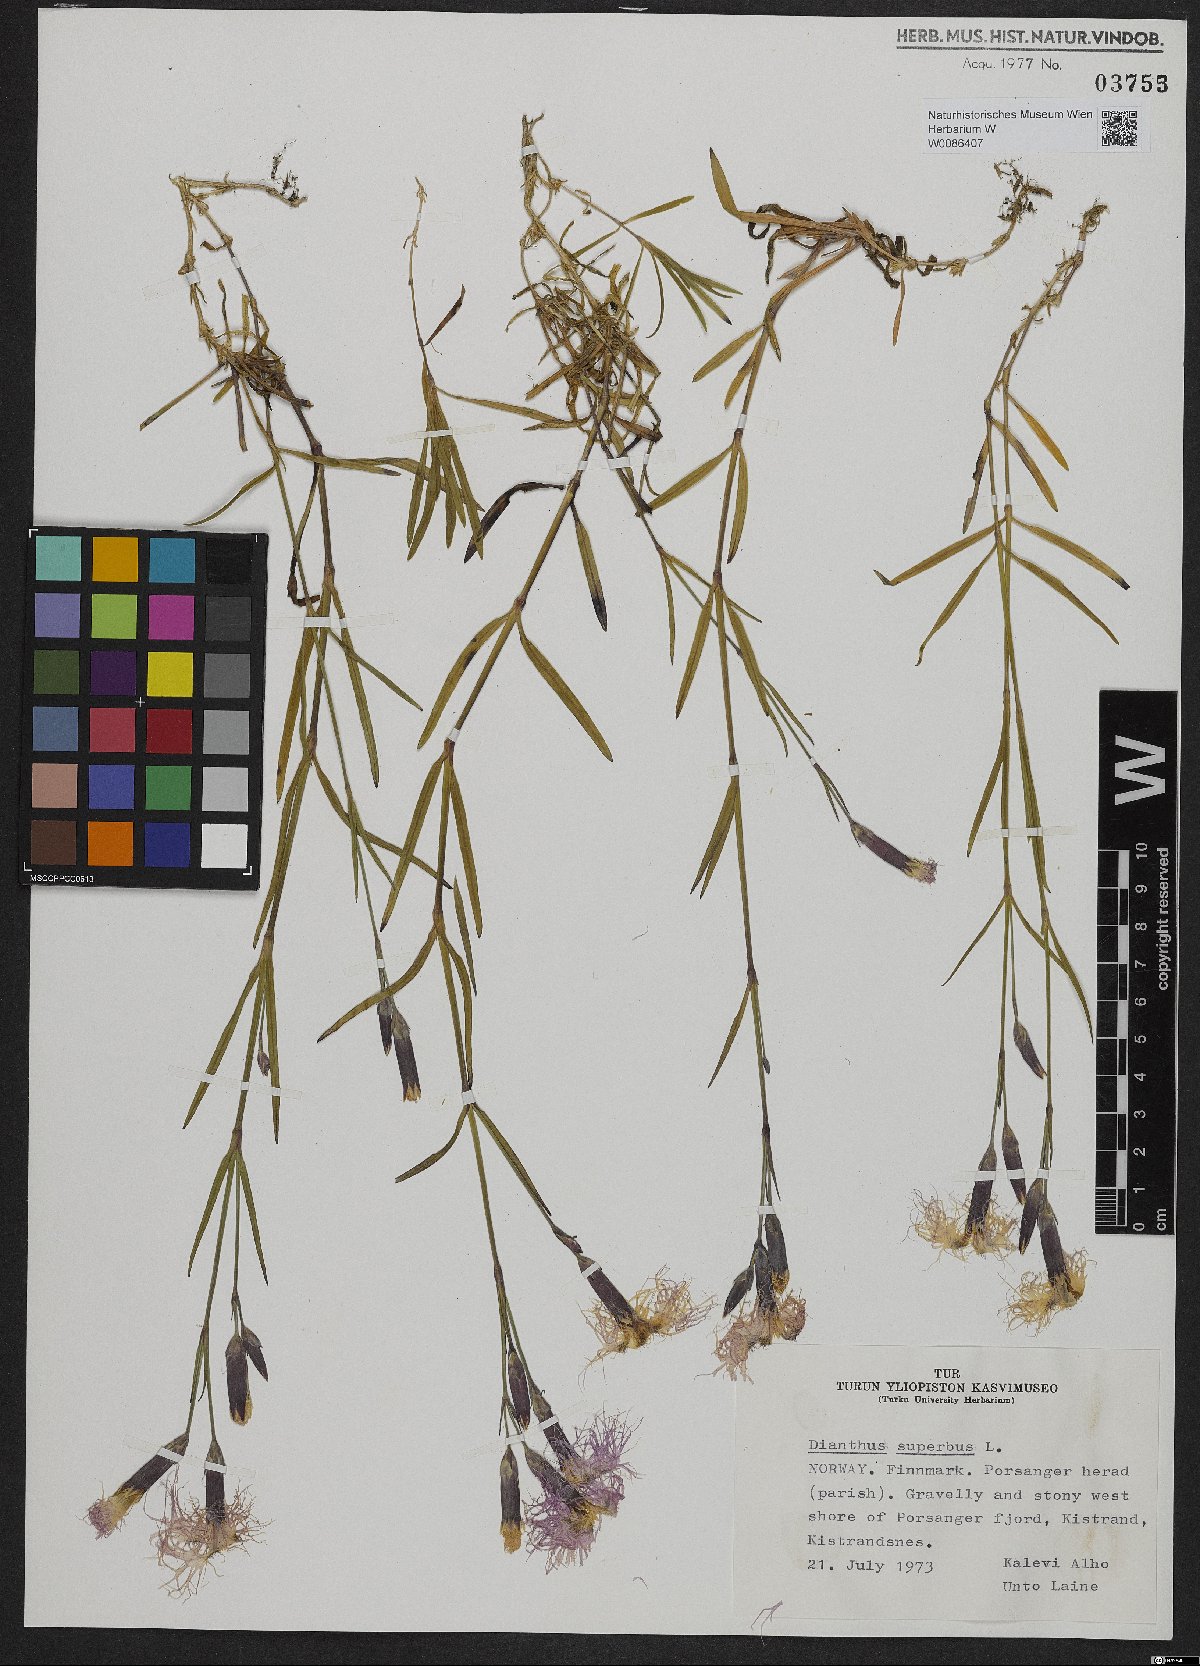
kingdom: Plantae
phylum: Tracheophyta
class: Magnoliopsida
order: Caryophyllales
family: Caryophyllaceae
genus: Dianthus
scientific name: Dianthus superbus
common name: Fringed pink
